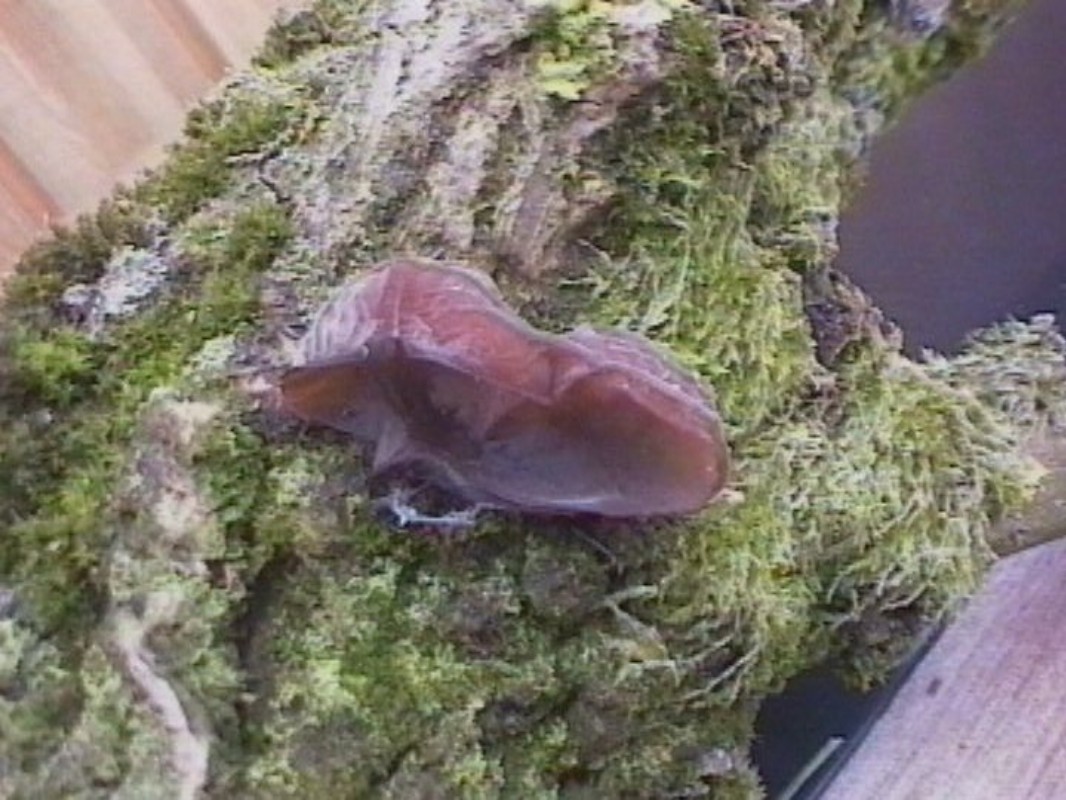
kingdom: Fungi
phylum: Basidiomycota
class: Agaricomycetes
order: Auriculariales
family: Auriculariaceae
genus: Auricularia
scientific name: Auricularia auricula-judae
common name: almindelig judasøre
